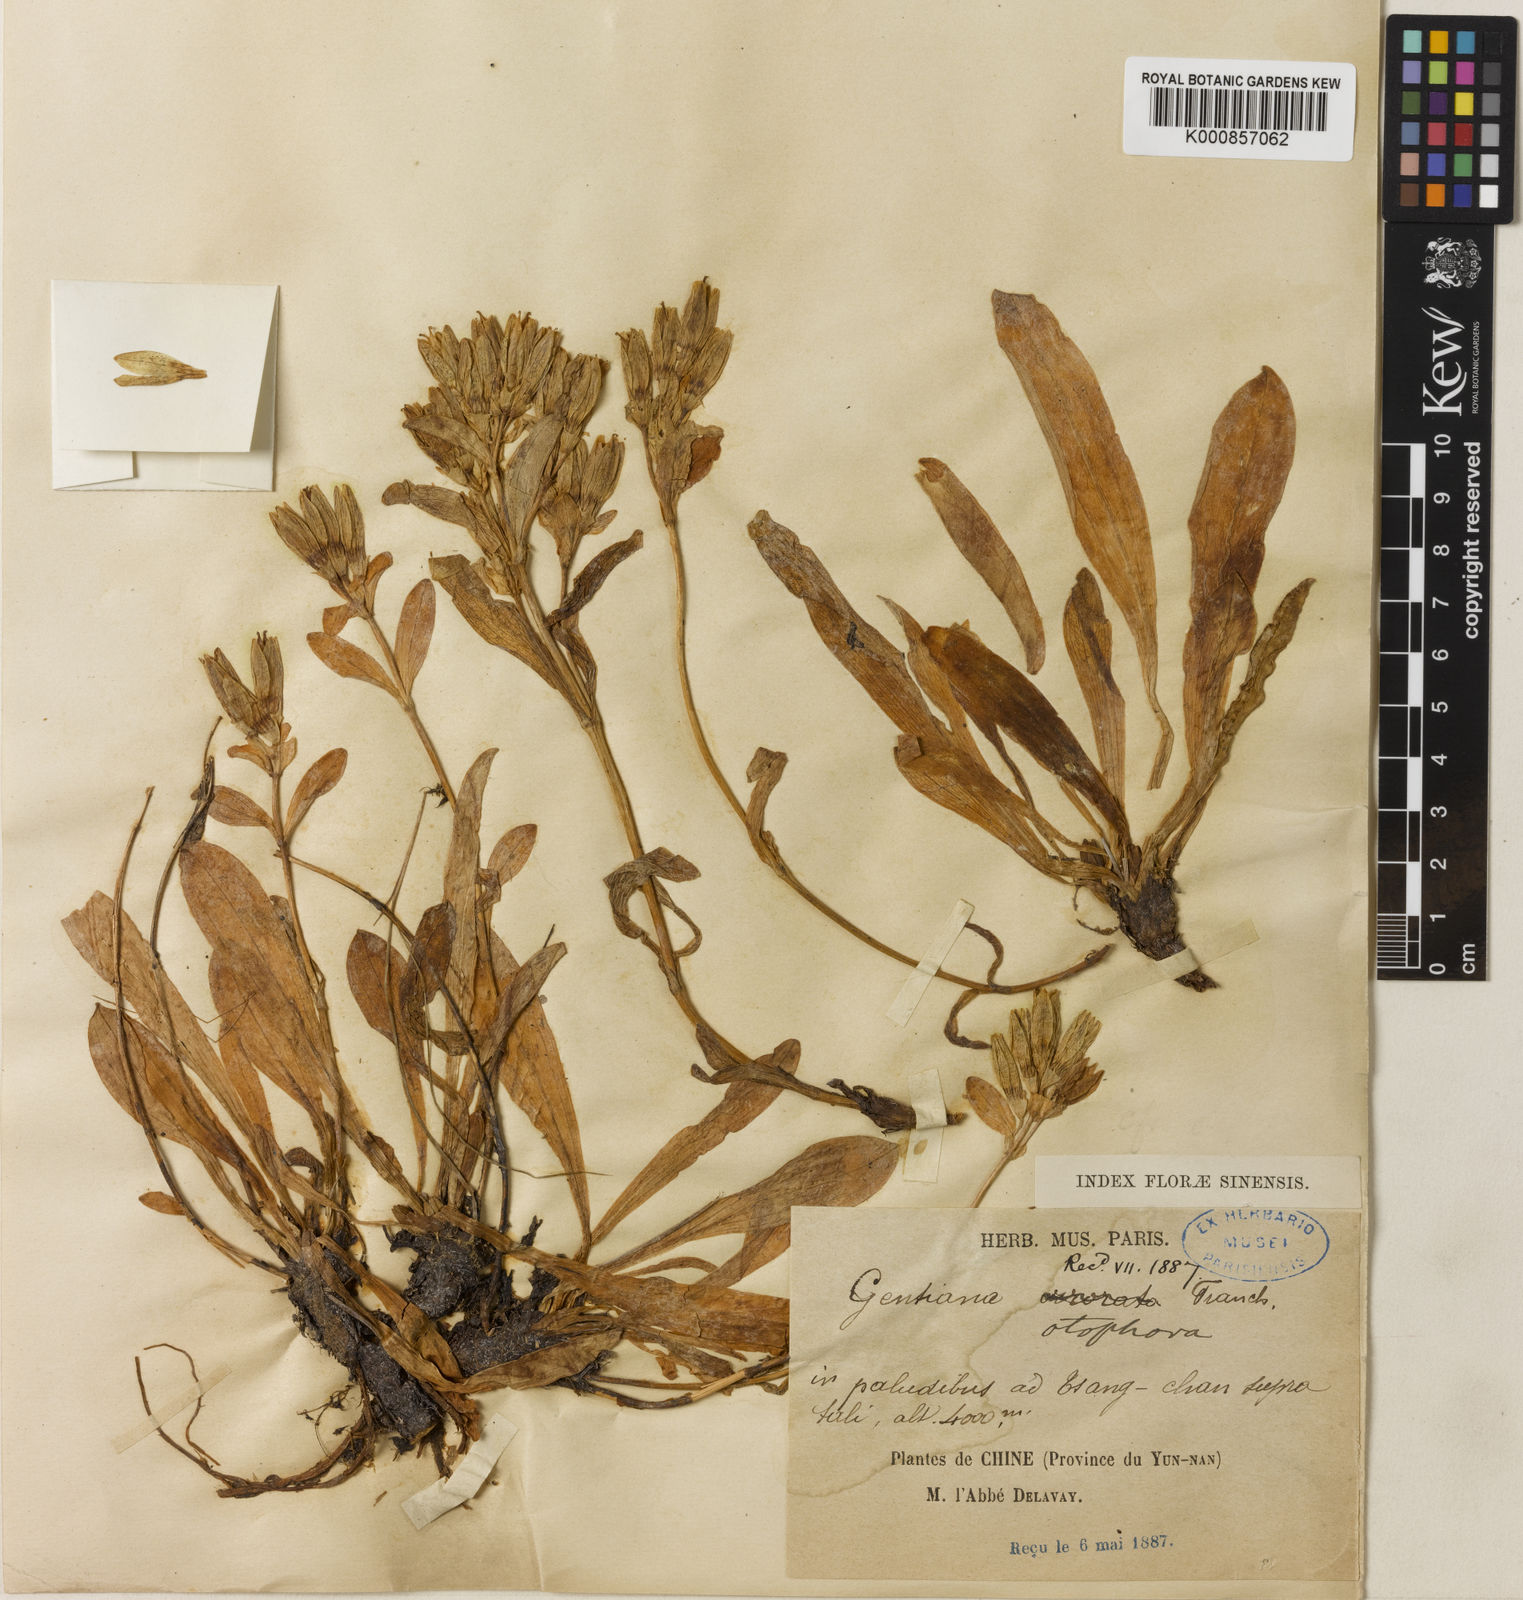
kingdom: Plantae
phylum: Tracheophyta
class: Magnoliopsida
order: Gentianales
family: Gentianaceae
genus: Kuepferia
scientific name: Kuepferia otophora
